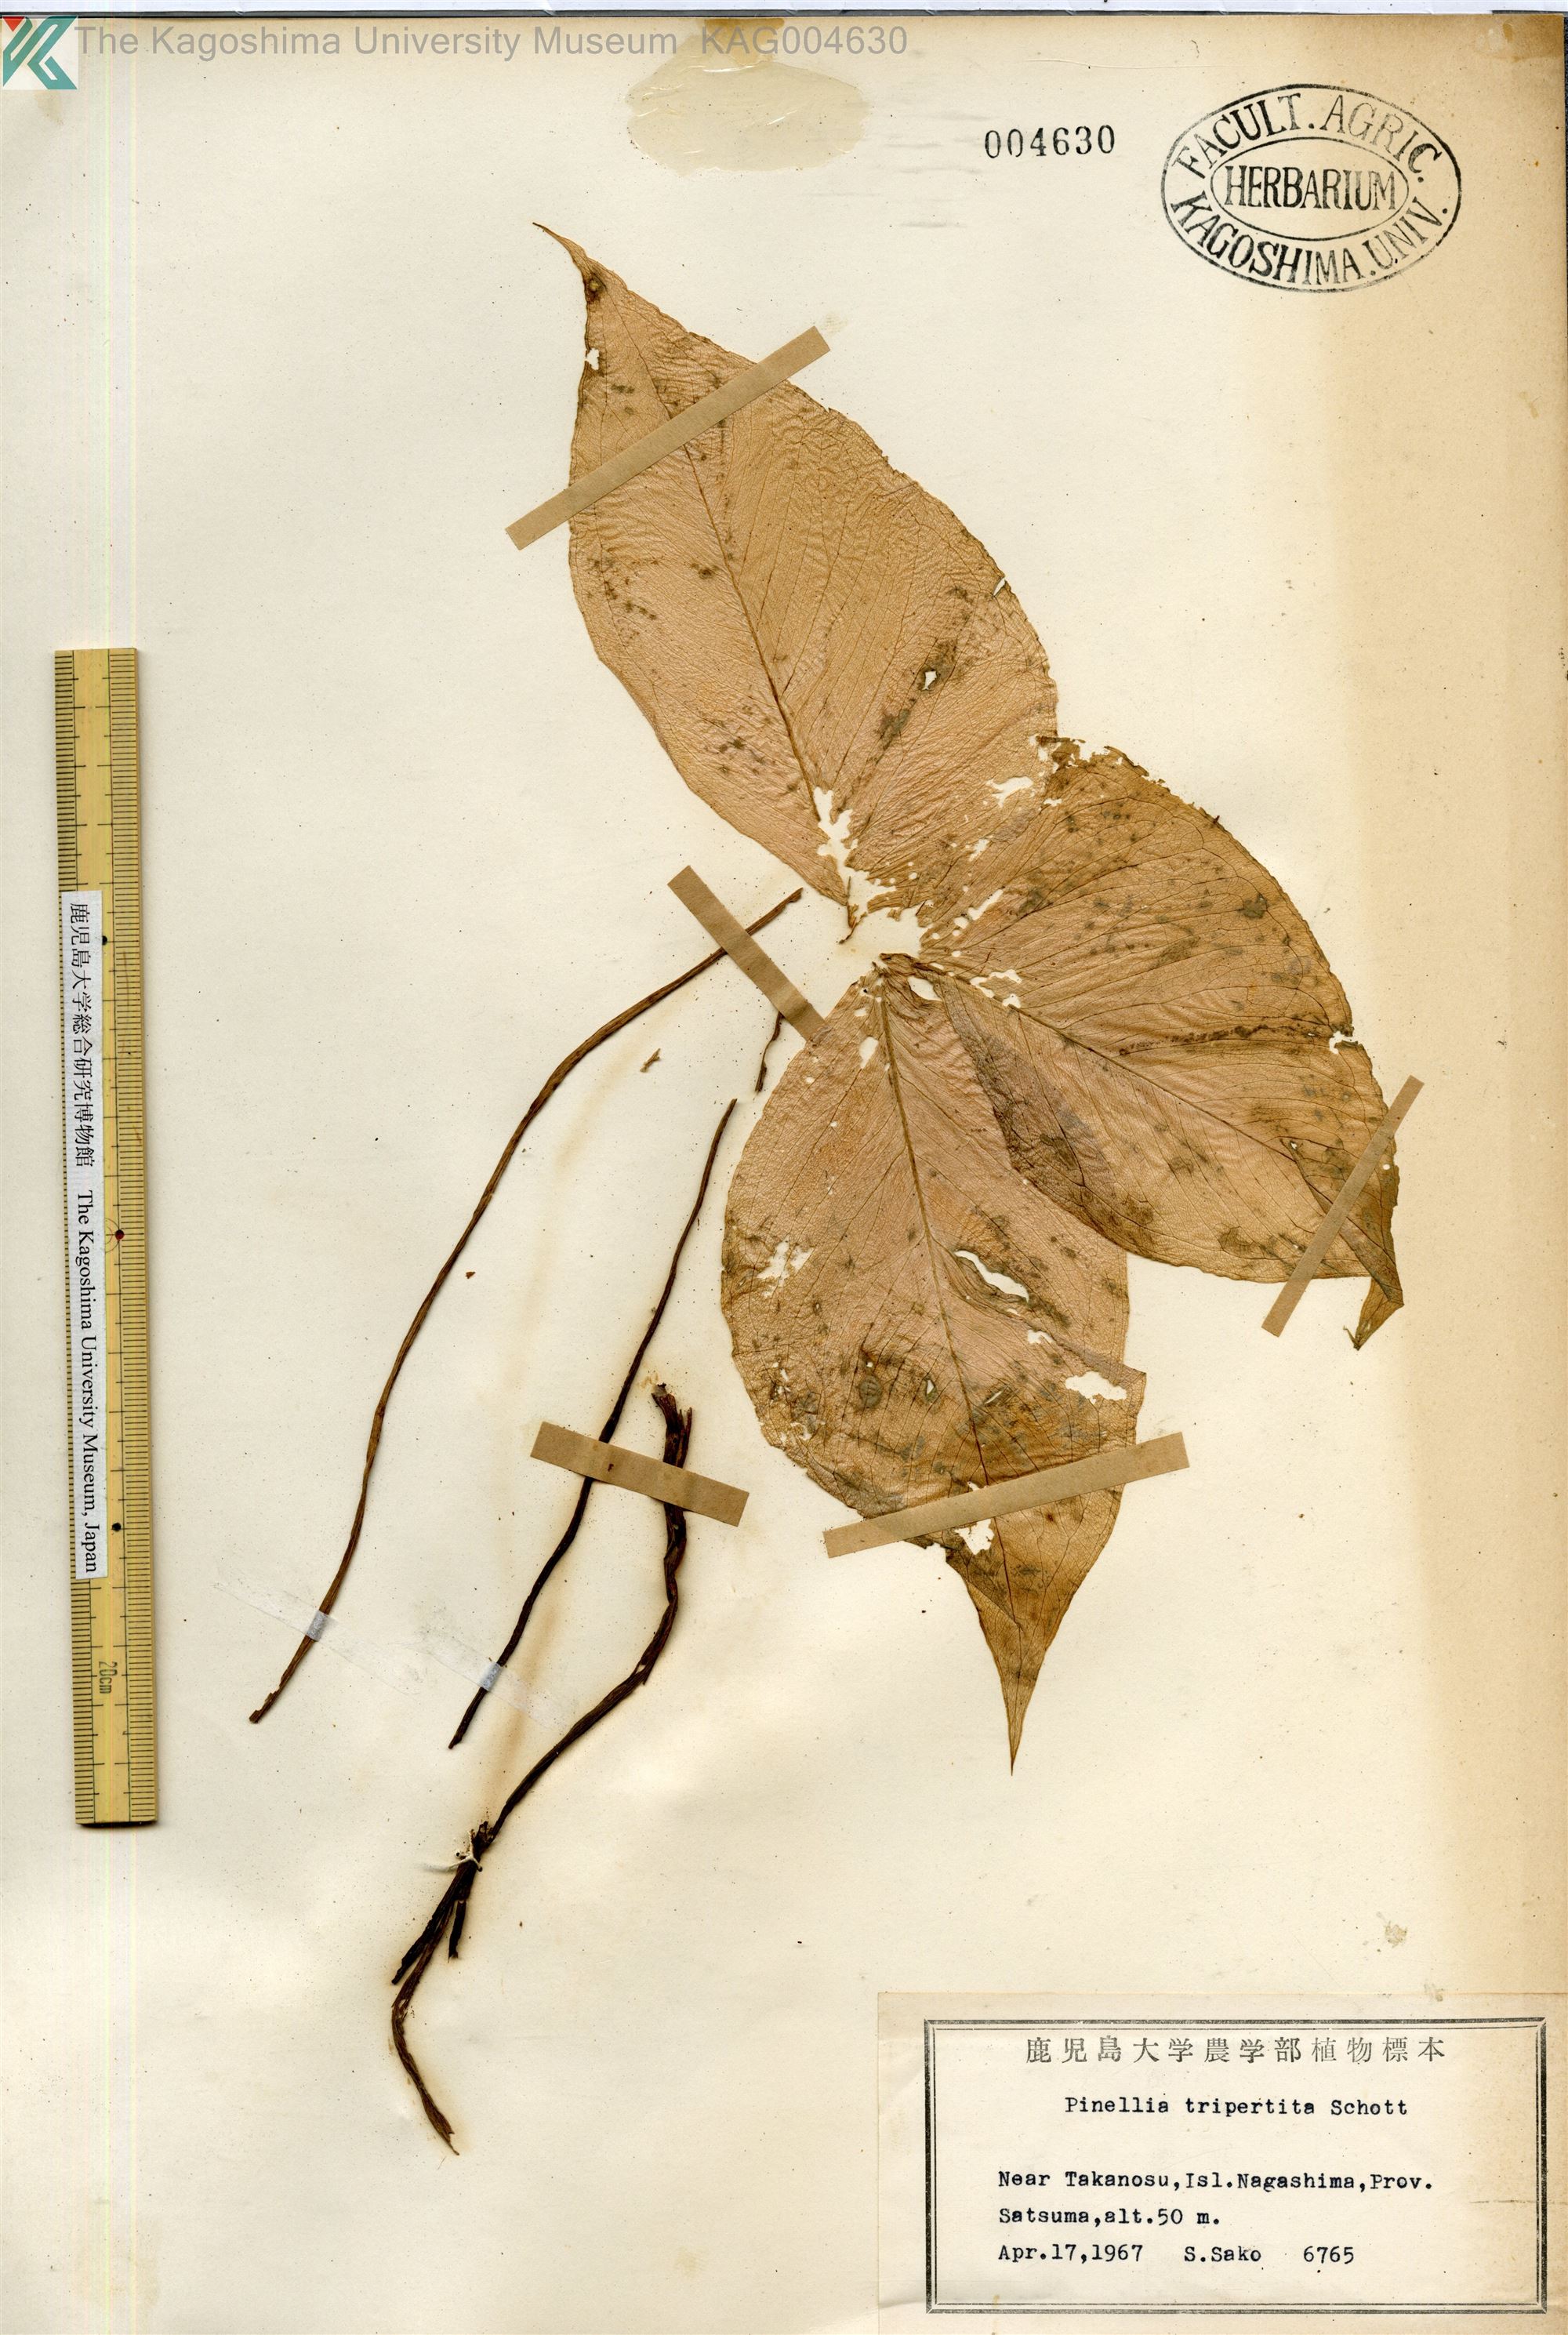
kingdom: Plantae
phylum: Tracheophyta
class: Liliopsida
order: Alismatales
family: Araceae
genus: Pinellia
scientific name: Pinellia tripartita
